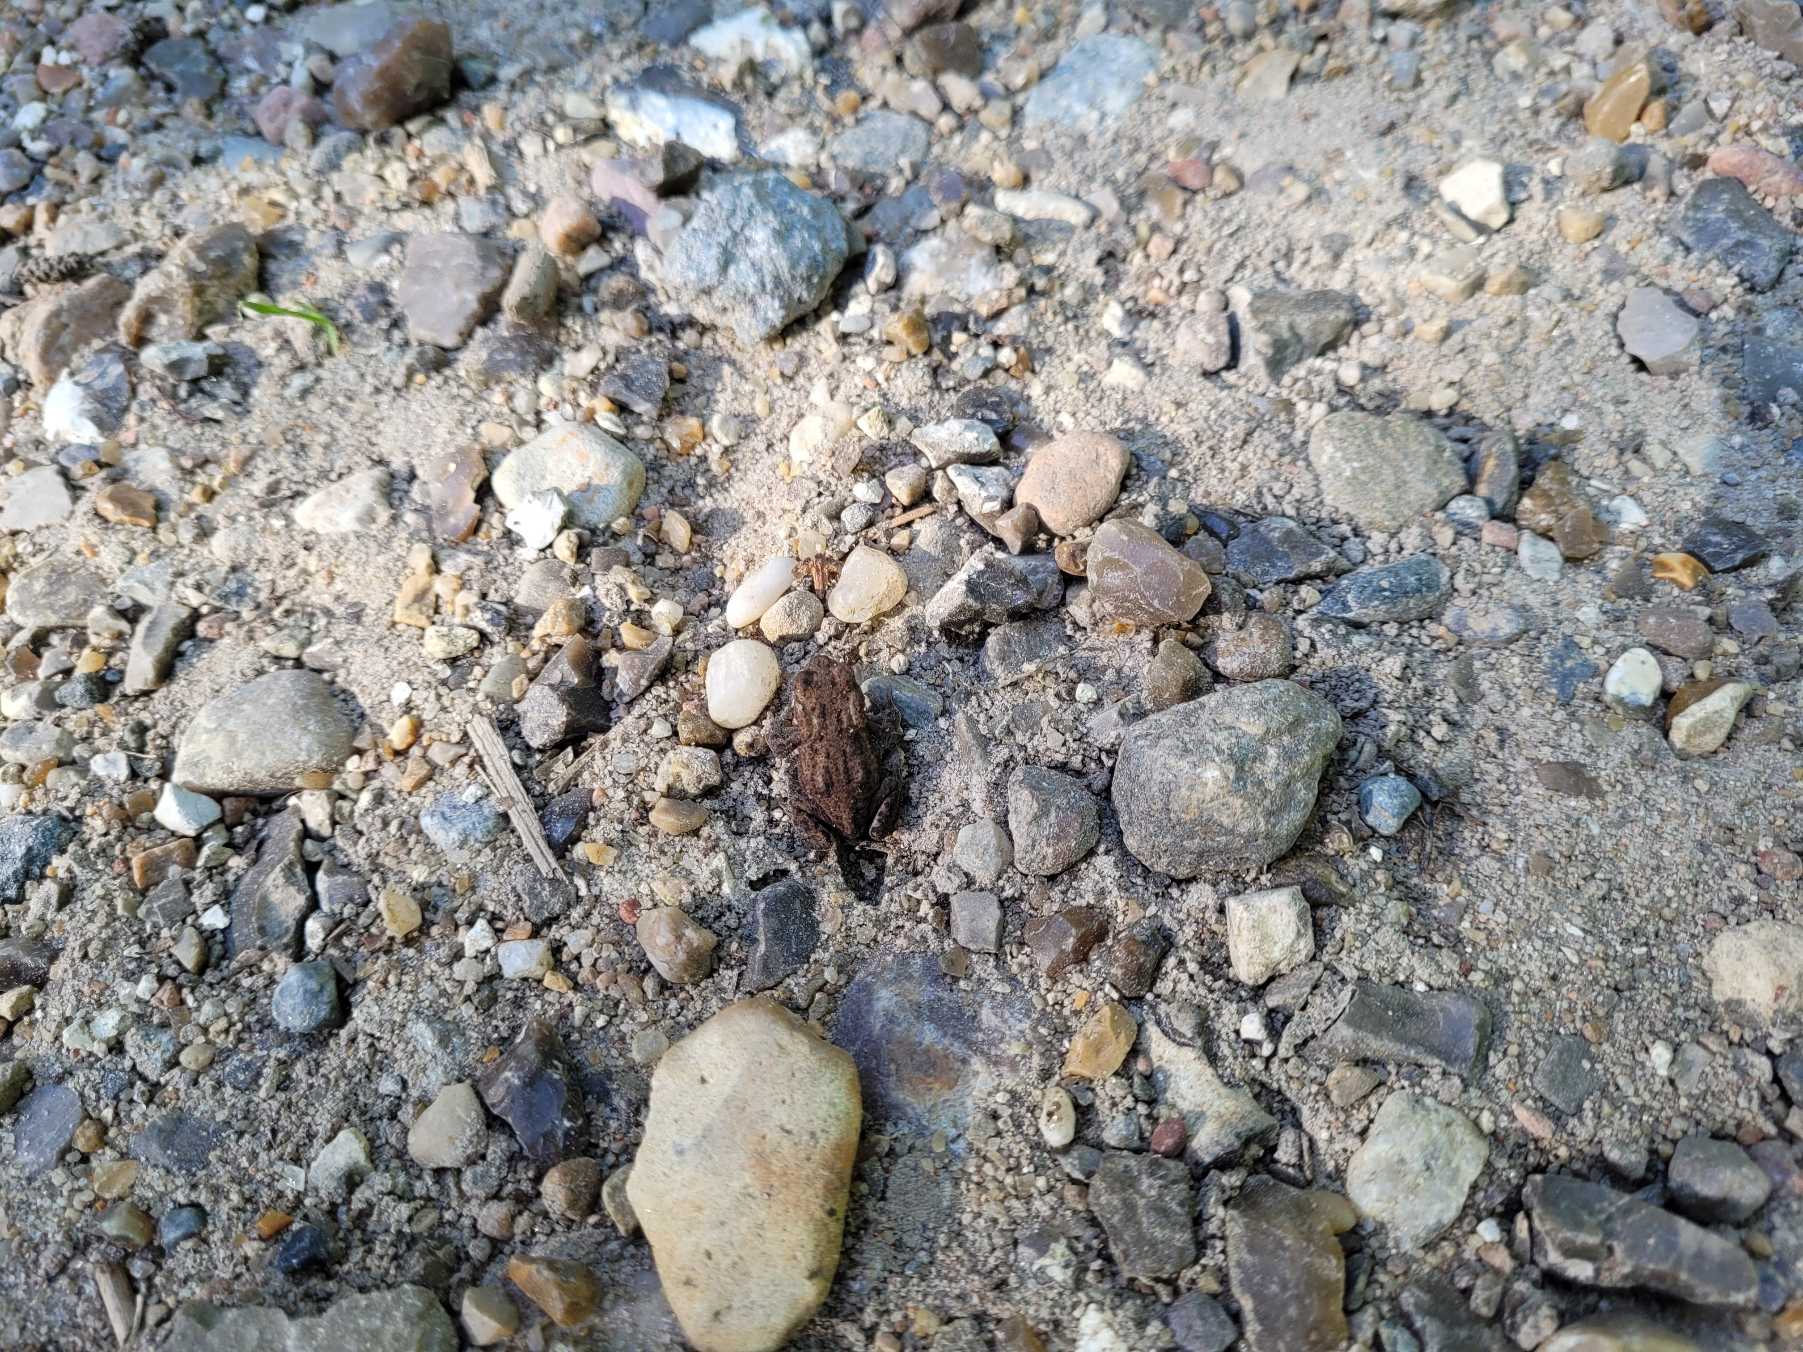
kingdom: Animalia
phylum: Chordata
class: Amphibia
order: Anura
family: Bufonidae
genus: Bufo
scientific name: Bufo bufo
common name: Skrubtudse
